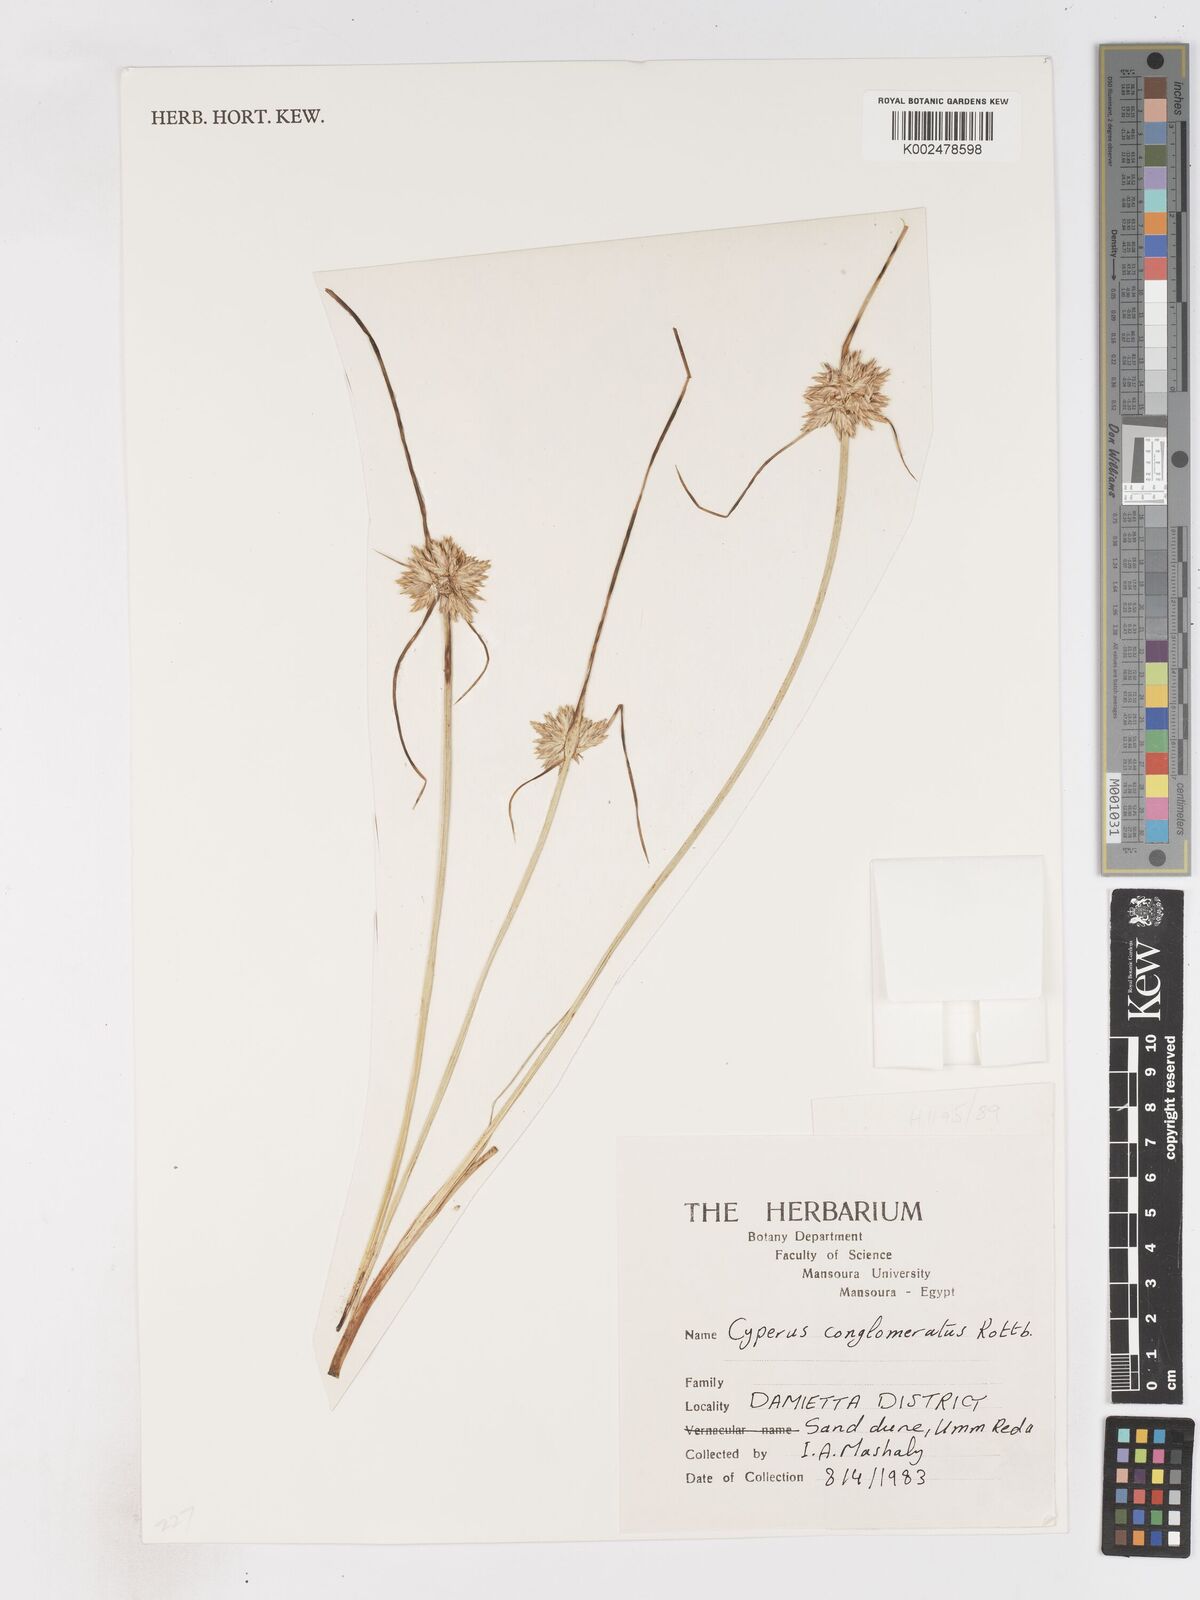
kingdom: Plantae
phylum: Tracheophyta
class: Liliopsida
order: Poales
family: Cyperaceae
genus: Cyperus
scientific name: Cyperus conglomeratus
